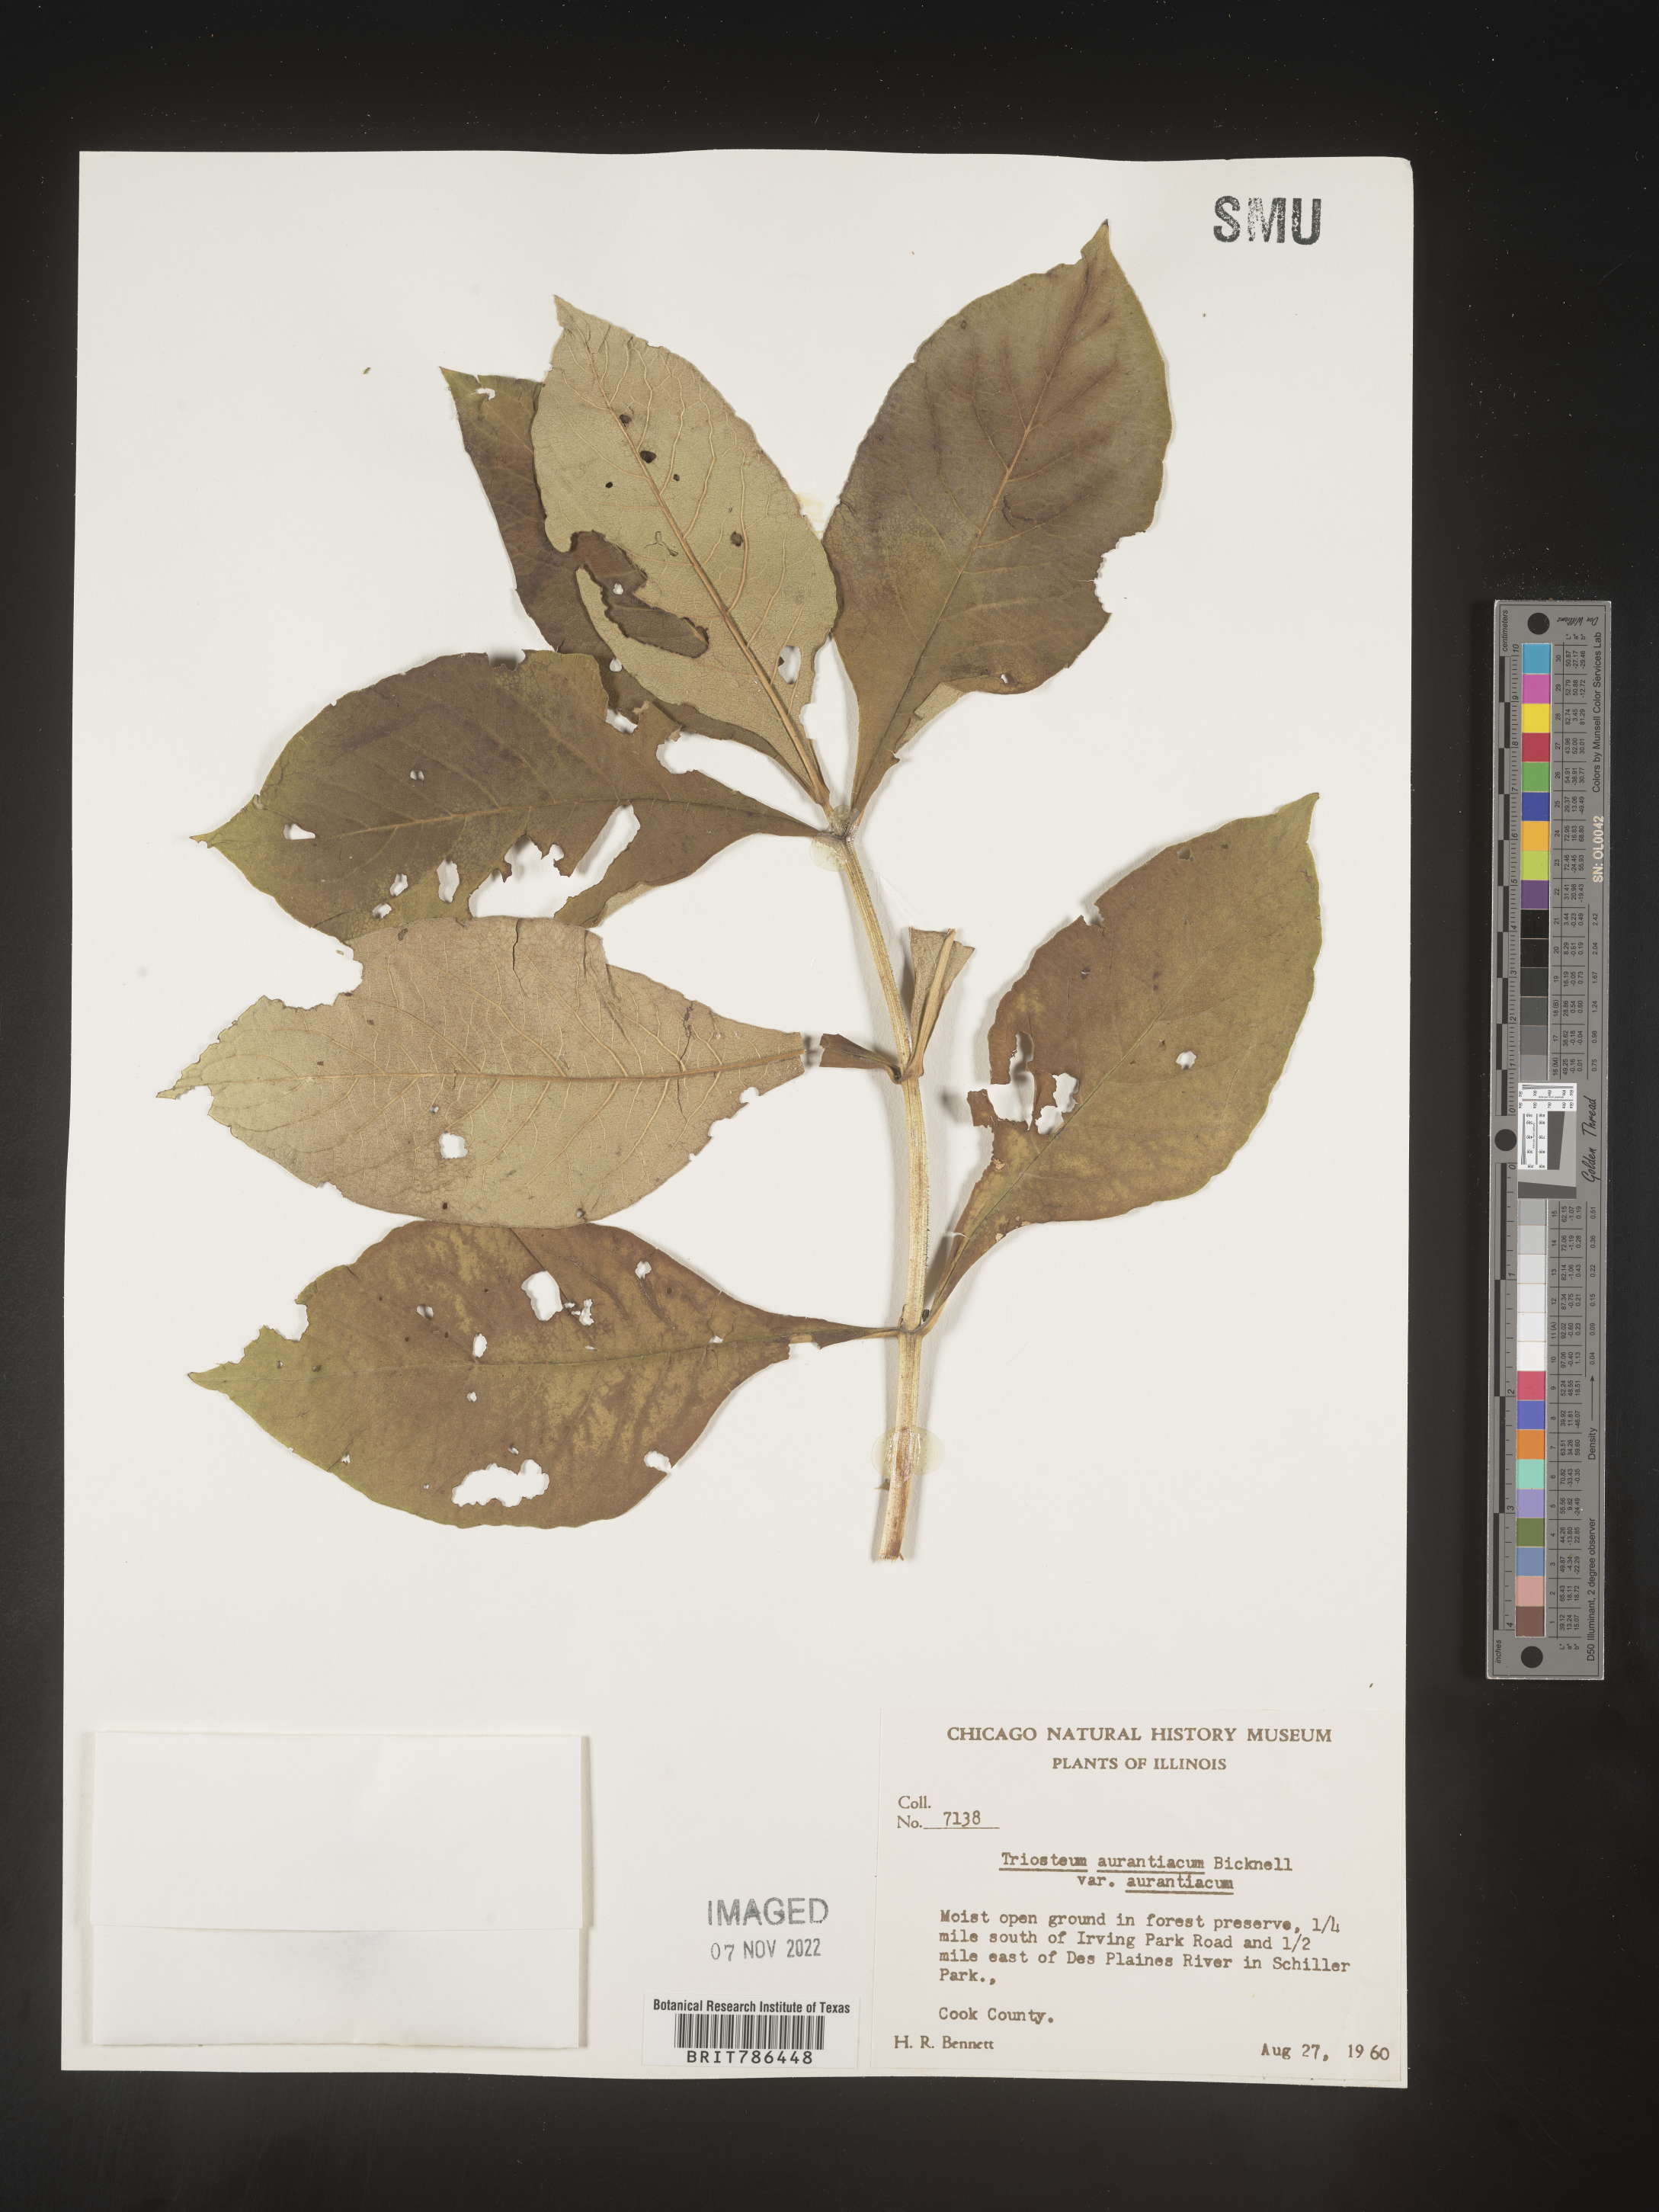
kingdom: Plantae
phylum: Tracheophyta
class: Magnoliopsida
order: Dipsacales
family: Caprifoliaceae
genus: Triosteum
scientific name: Triosteum aurantiacum
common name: Coffee tinker's-weed
